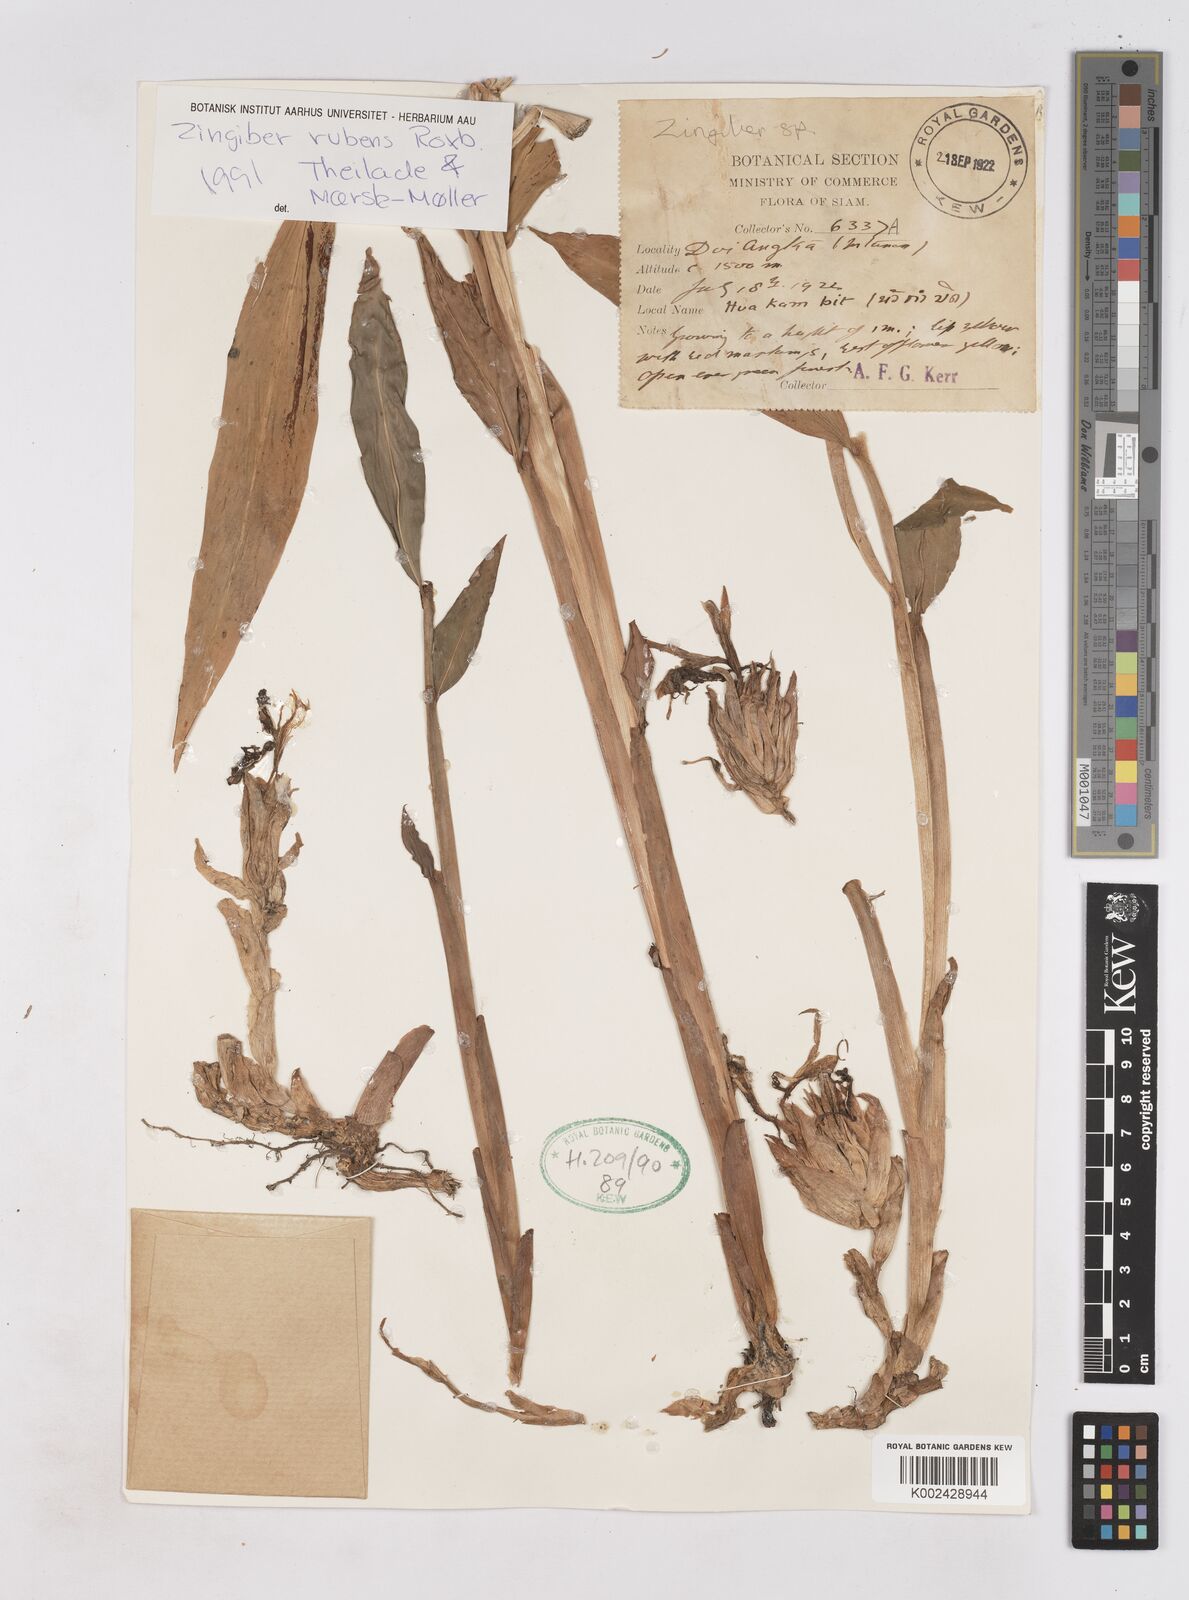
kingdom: Plantae
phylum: Tracheophyta
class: Liliopsida
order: Zingiberales
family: Zingiberaceae
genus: Zingiber
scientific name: Zingiber rubens
